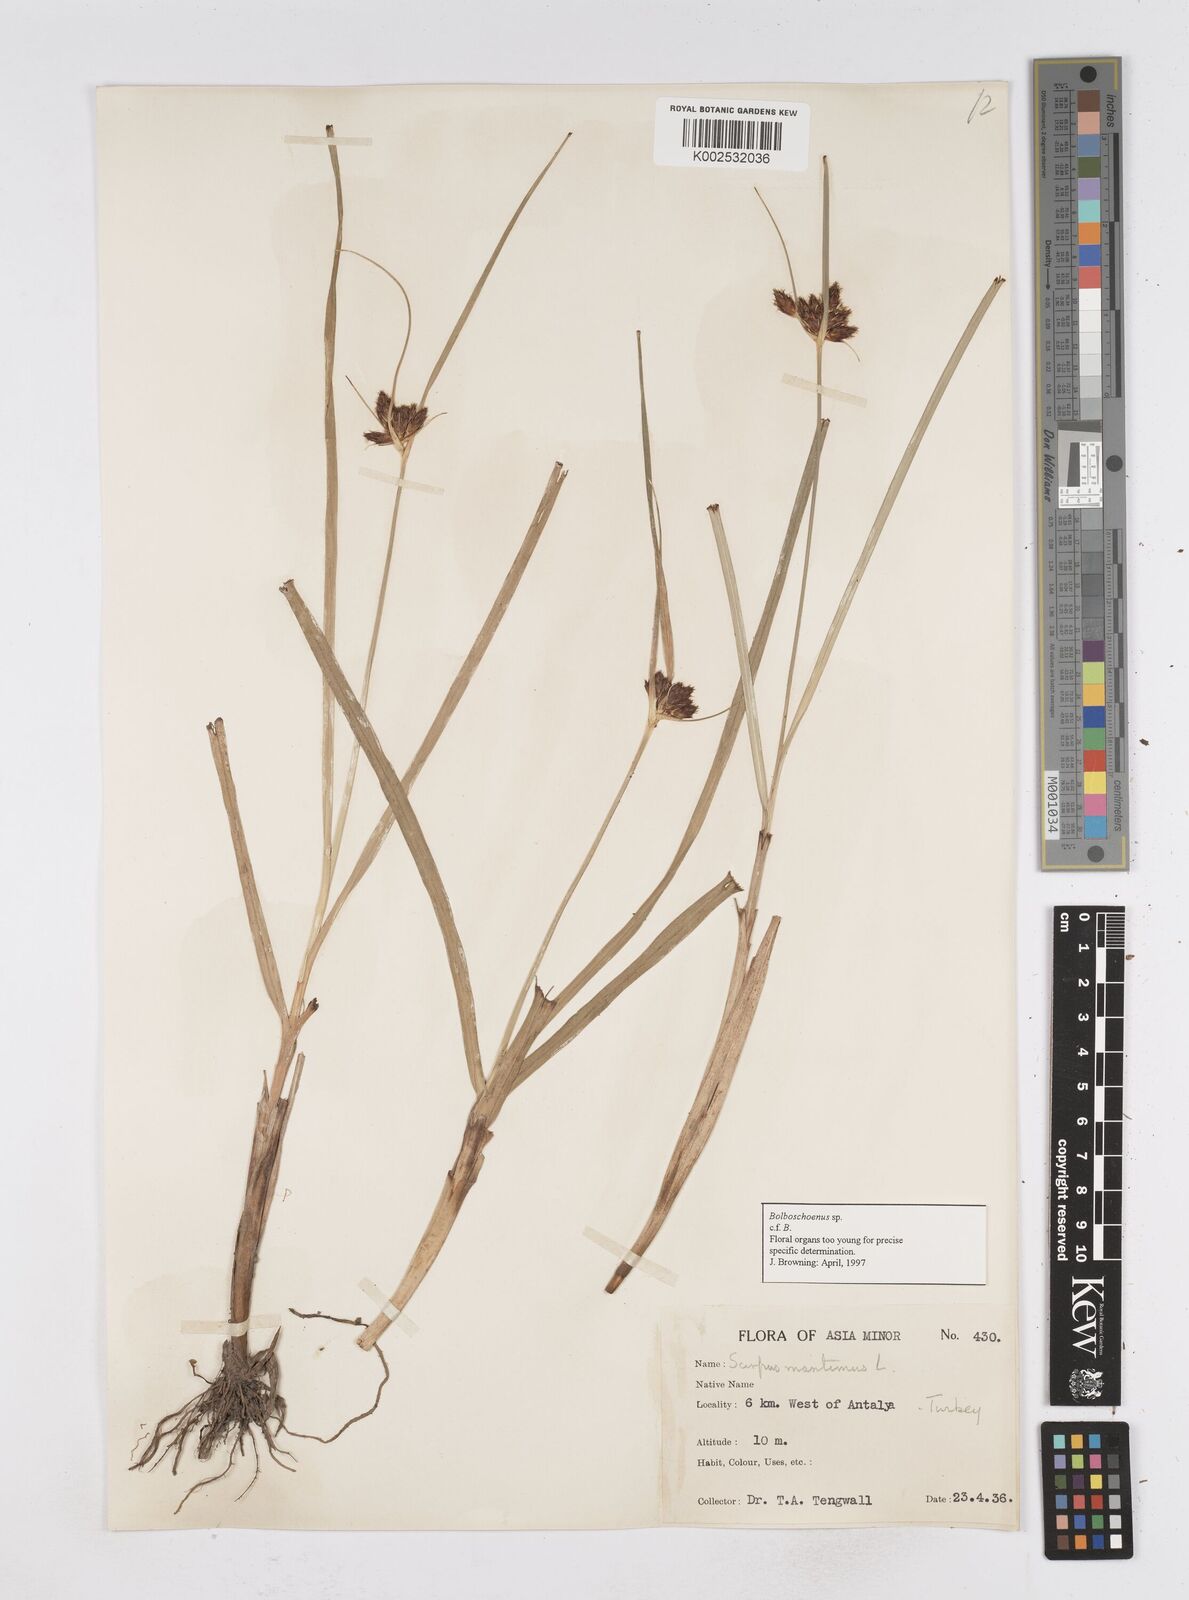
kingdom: Plantae
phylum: Tracheophyta
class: Liliopsida
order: Poales
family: Cyperaceae
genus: Bolboschoenus
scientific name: Bolboschoenus maritimus
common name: Sea club-rush
